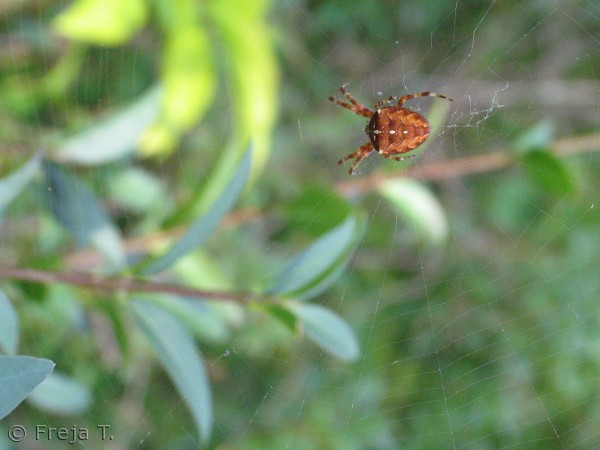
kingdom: Animalia
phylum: Arthropoda
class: Arachnida
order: Araneae
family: Araneidae
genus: Araneus
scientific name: Araneus diadematus
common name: Korsedderkop
